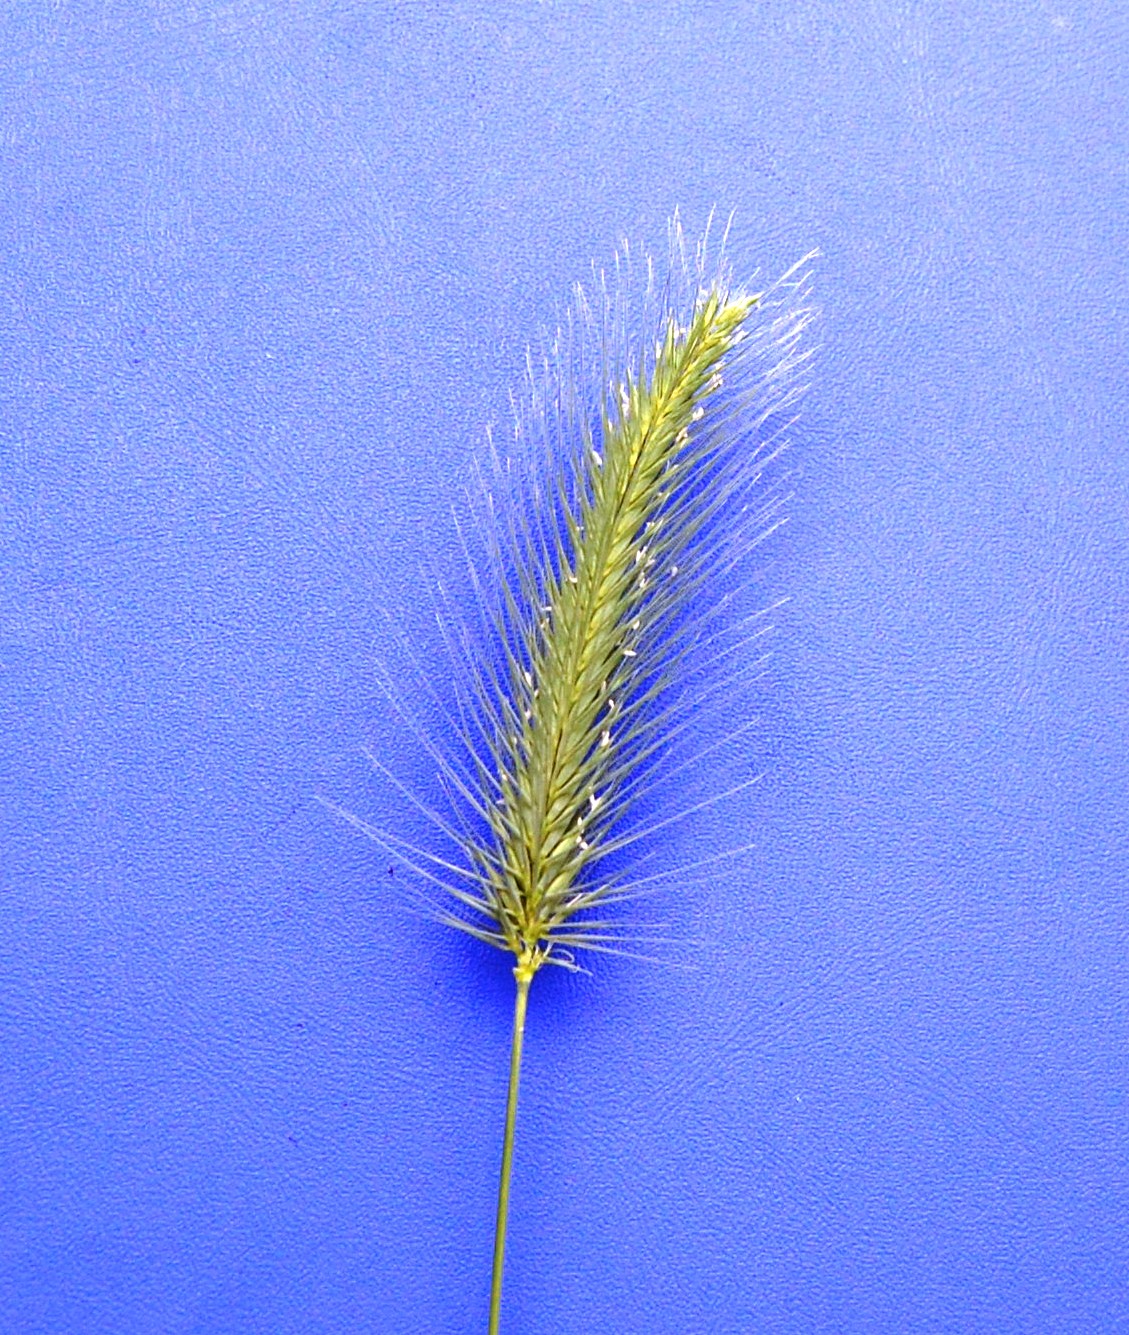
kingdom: Plantae
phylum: Tracheophyta
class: Liliopsida
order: Poales
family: Poaceae
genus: Hordeum
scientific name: Hordeum marinum
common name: Sea barley
